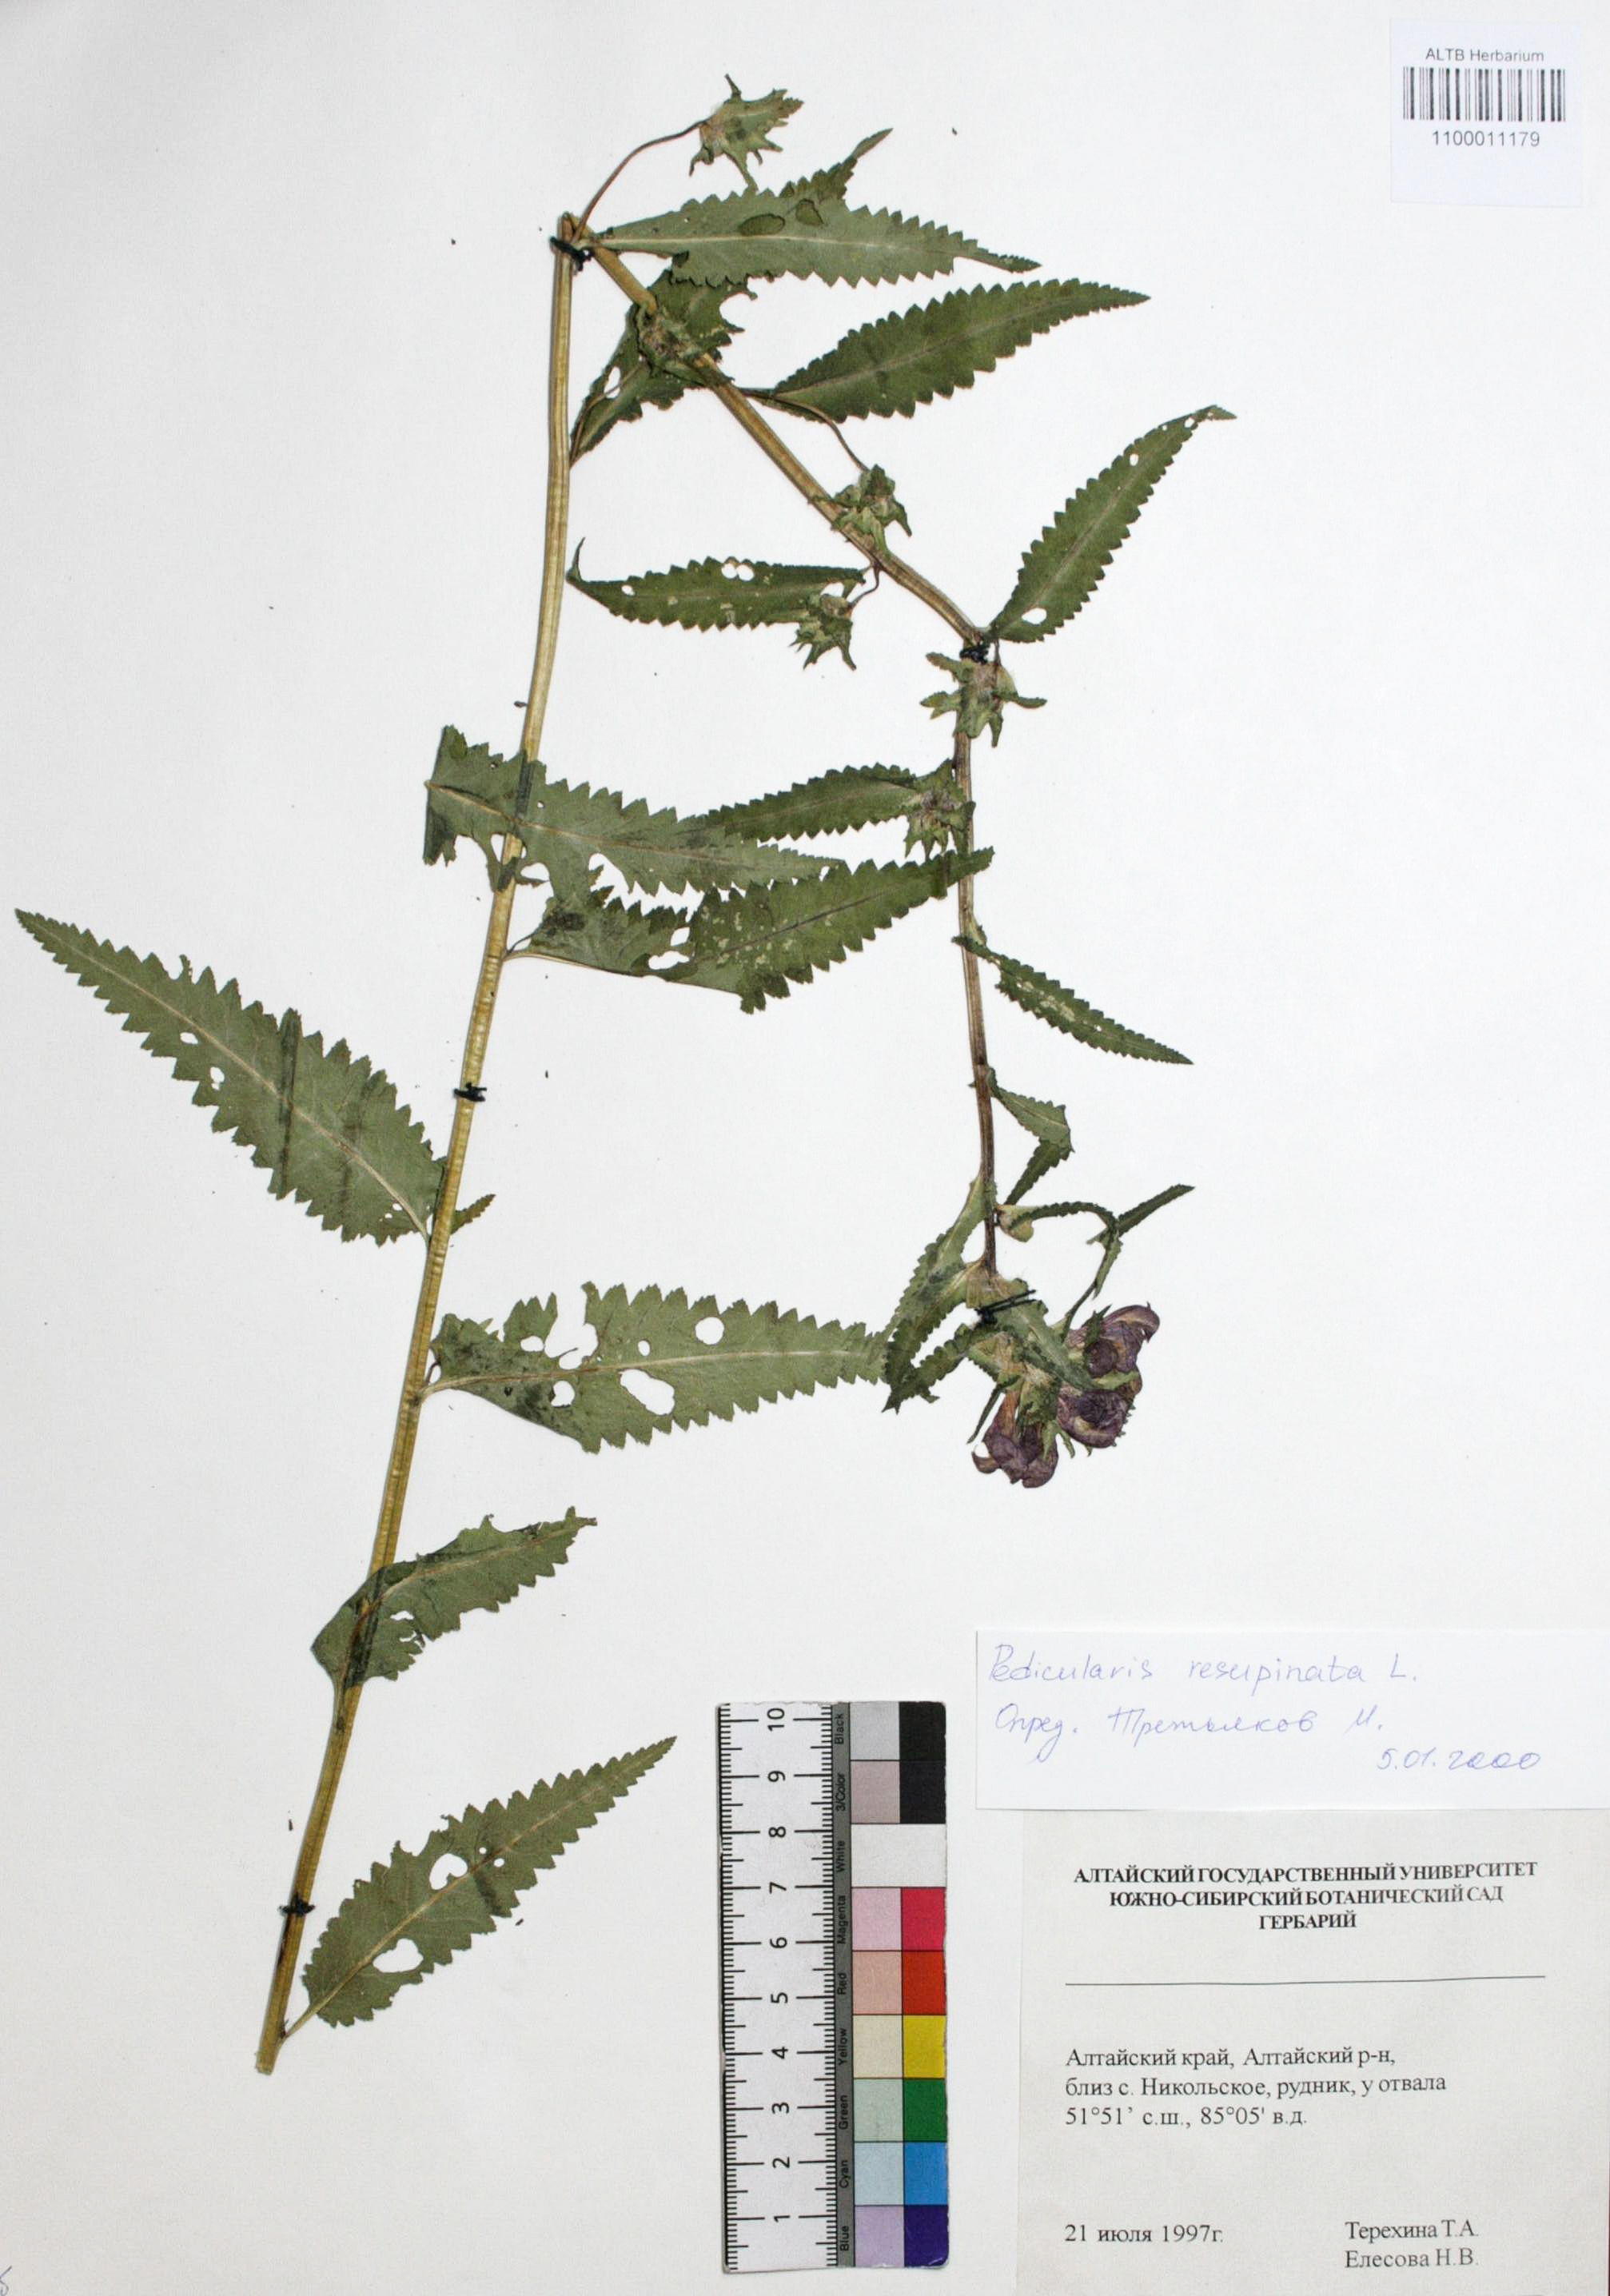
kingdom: Plantae
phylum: Tracheophyta
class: Magnoliopsida
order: Lamiales
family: Orobanchaceae
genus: Pedicularis
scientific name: Pedicularis resupinata
